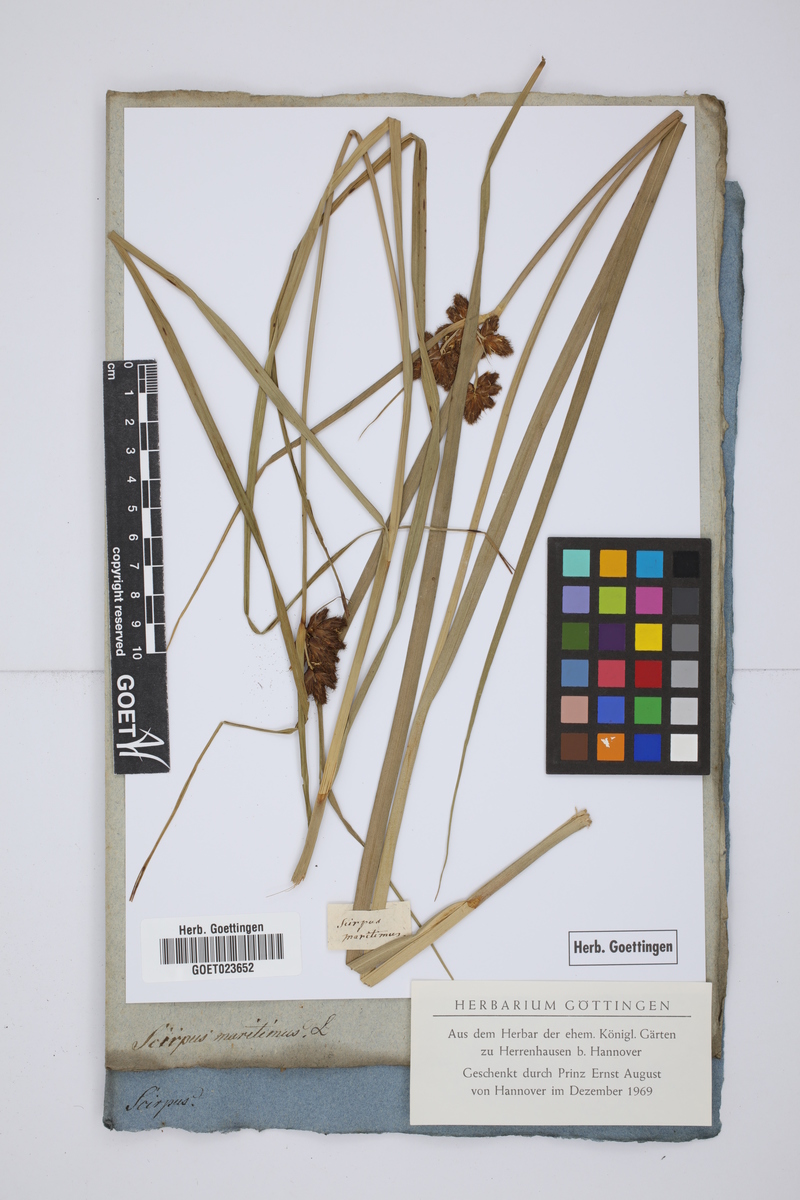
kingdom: Plantae
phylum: Tracheophyta
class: Liliopsida
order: Poales
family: Cyperaceae
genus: Bolboschoenus
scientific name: Bolboschoenus maritimus
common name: Sea club-rush
